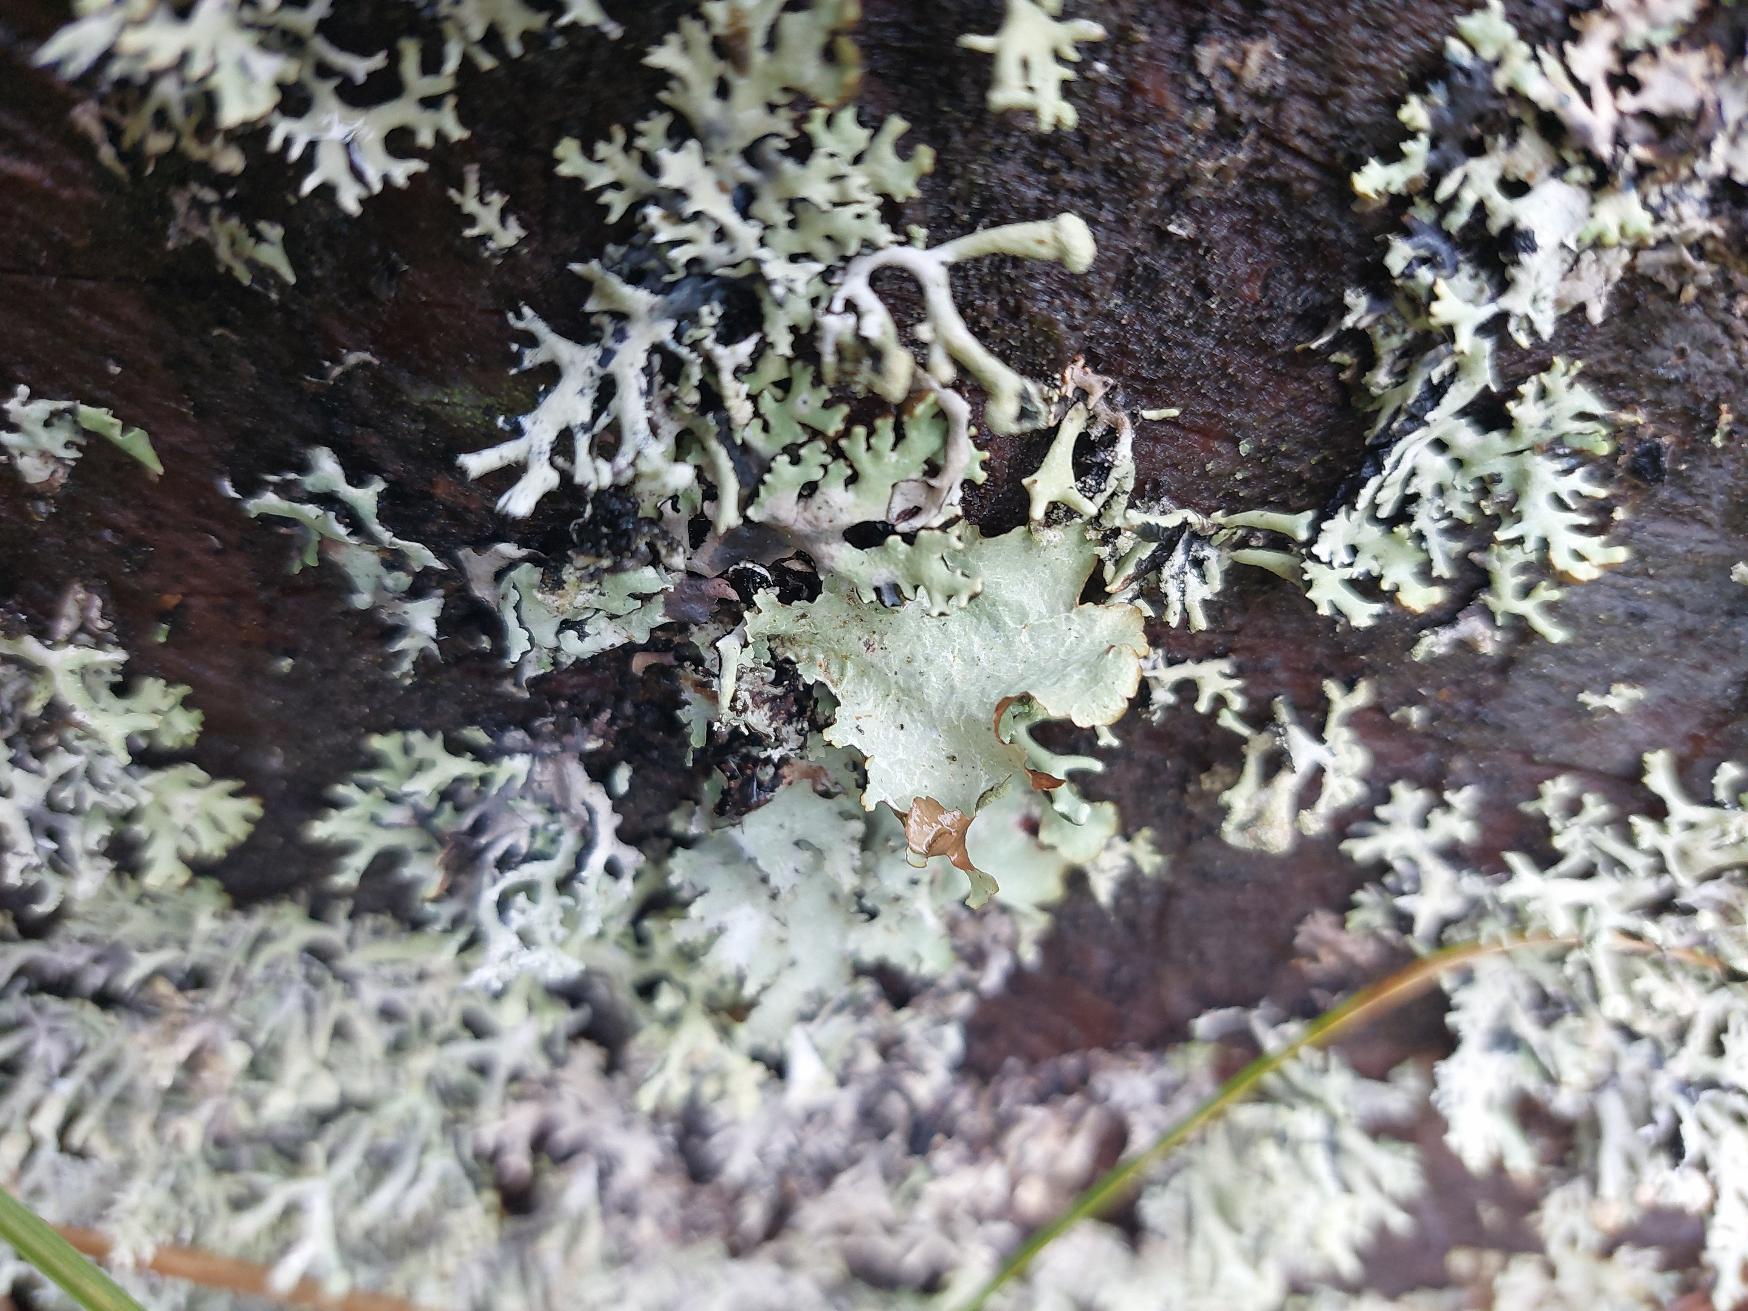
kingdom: Fungi
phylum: Ascomycota
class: Lecanoromycetes
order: Lecanorales
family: Parmeliaceae
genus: Platismatia
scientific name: Platismatia glauca
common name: Blågrå papirlav
